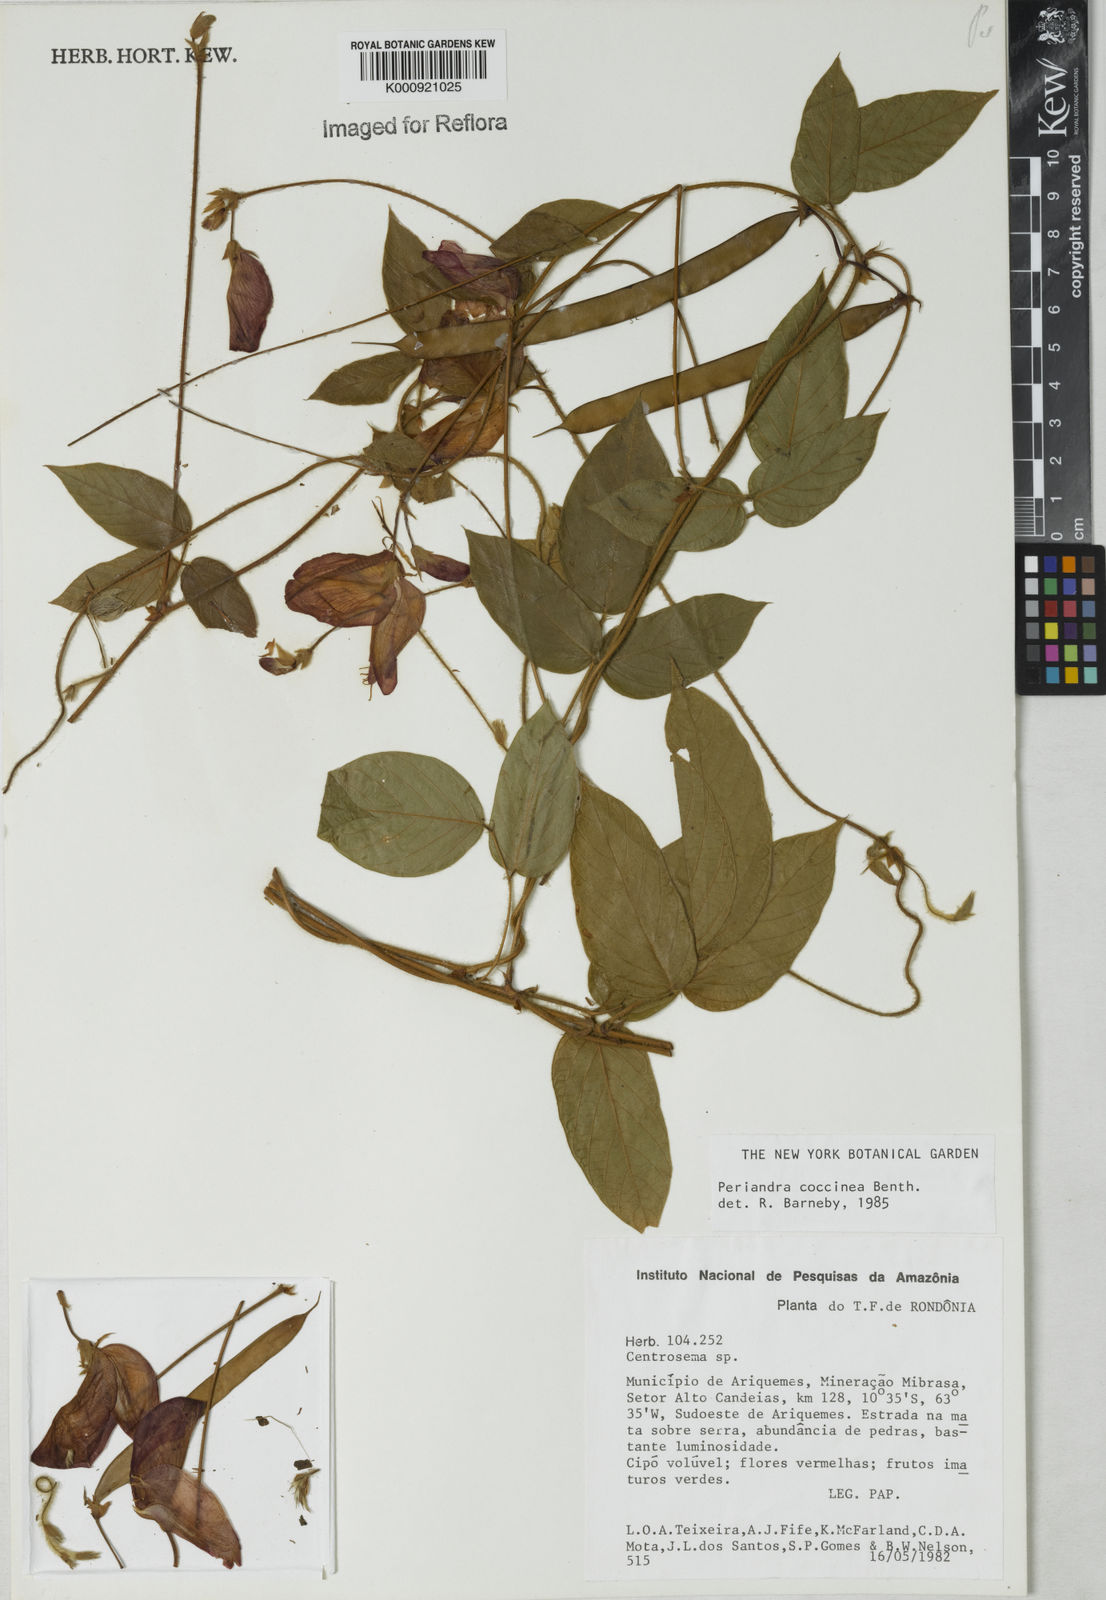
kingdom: Plantae
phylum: Tracheophyta
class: Magnoliopsida
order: Fabales
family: Fabaceae
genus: Periandra
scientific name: Periandra coccinea
